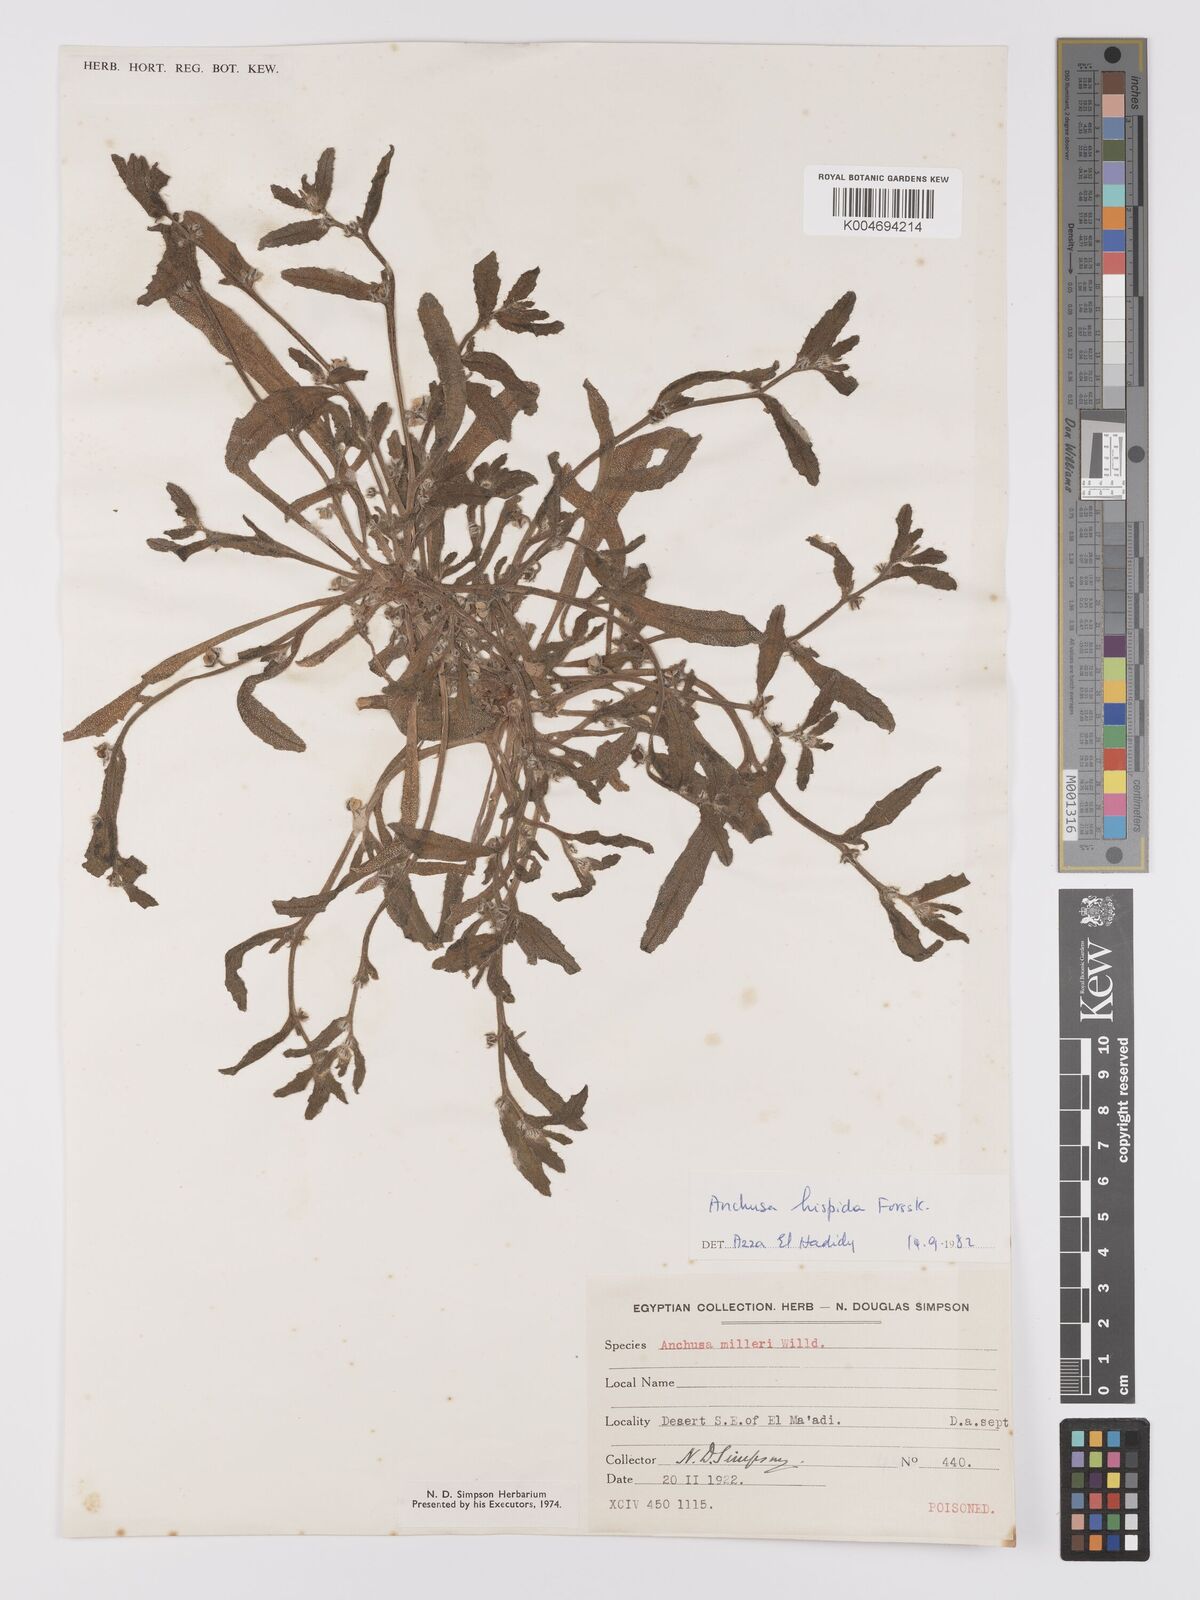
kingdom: Plantae
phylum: Tracheophyta
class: Magnoliopsida
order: Boraginales
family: Boraginaceae
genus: Gastrocotyle
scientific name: Gastrocotyle hispida
